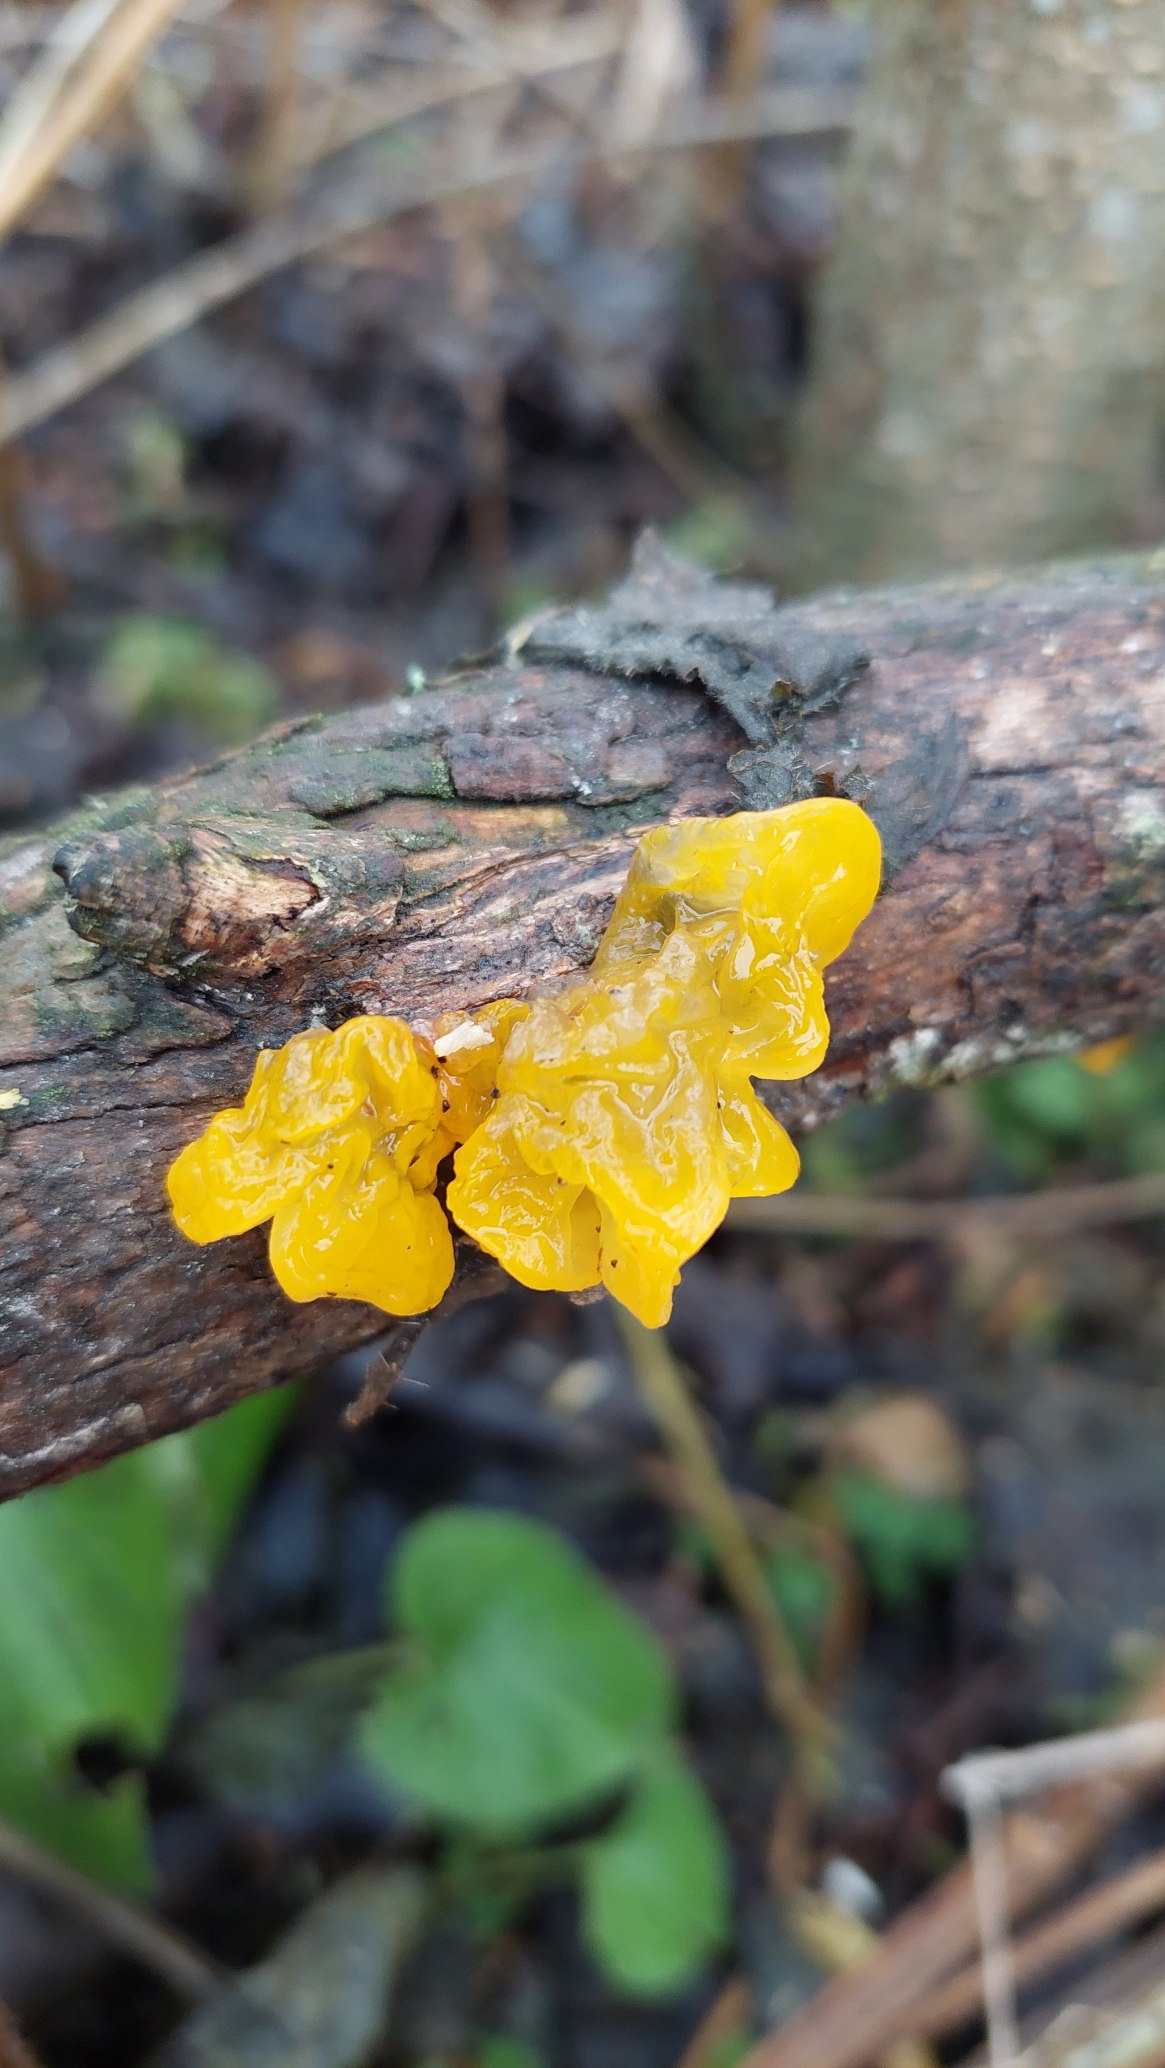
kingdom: Fungi
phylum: Basidiomycota
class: Tremellomycetes
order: Tremellales
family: Tremellaceae
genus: Tremella
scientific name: Tremella mesenterica
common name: Gul bævresvamp
